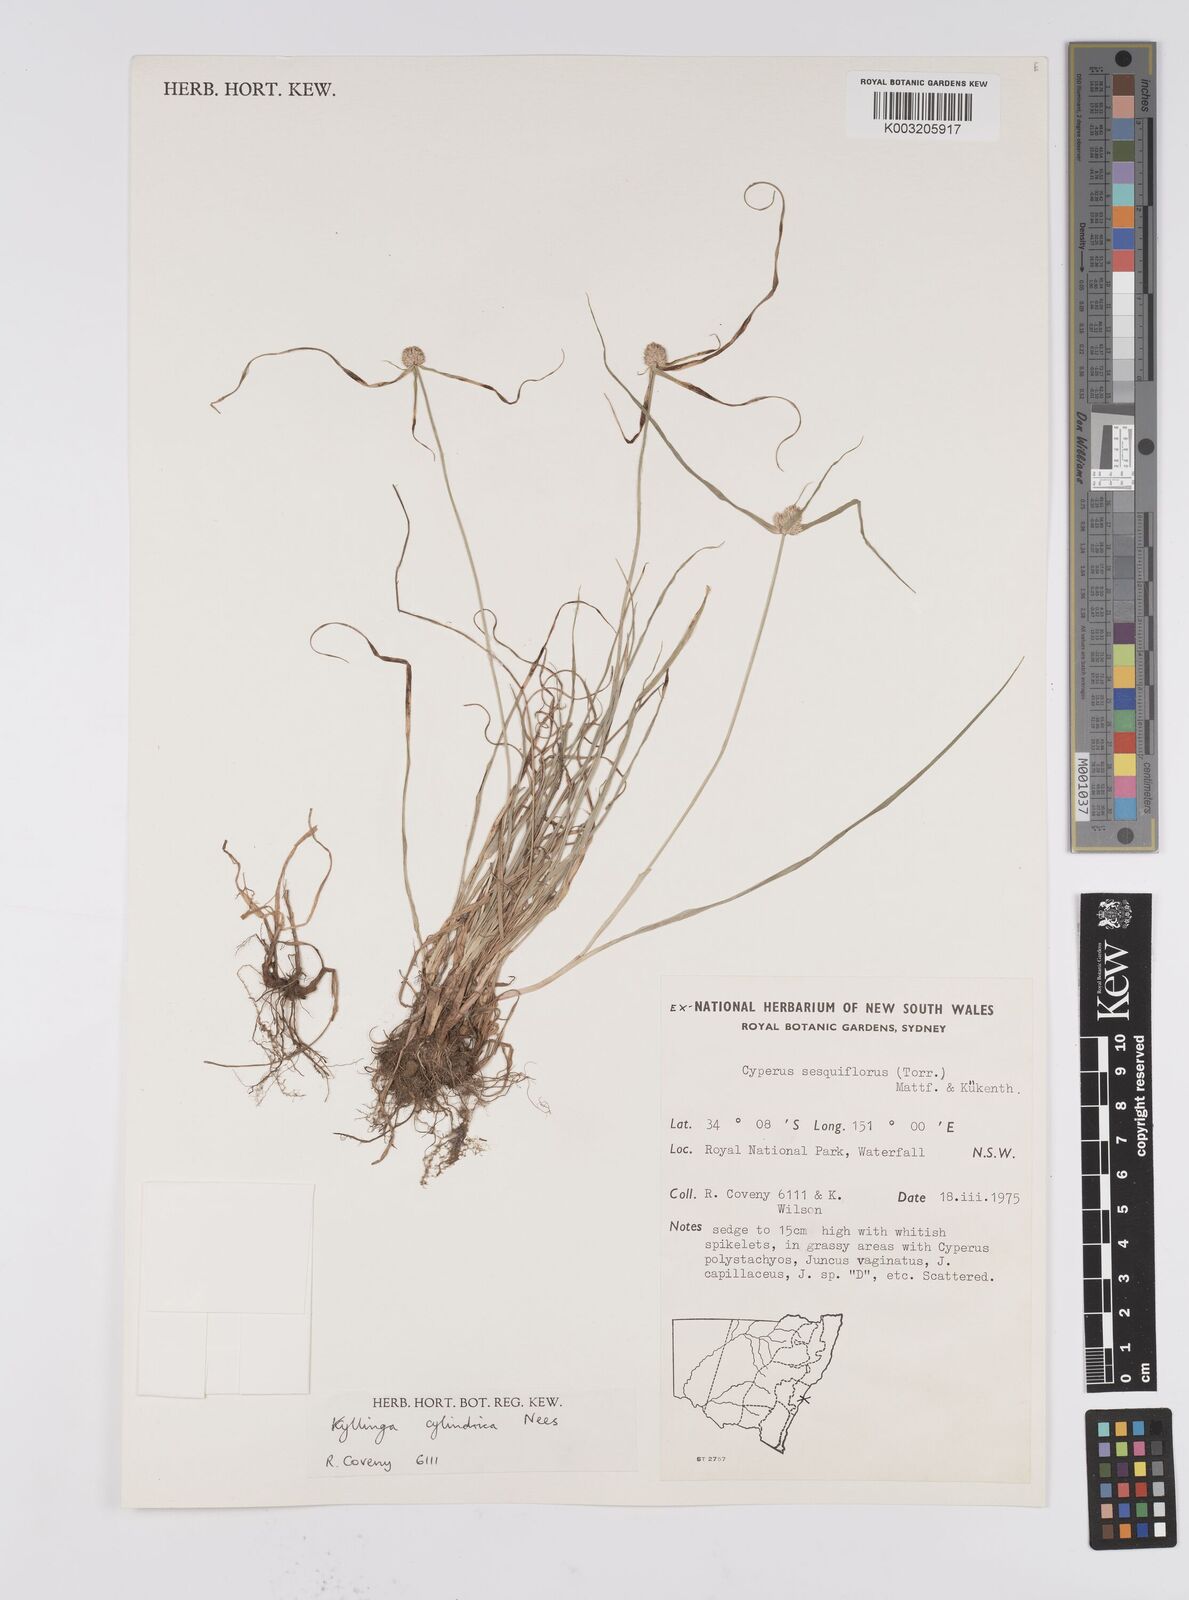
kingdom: Plantae
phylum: Tracheophyta
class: Liliopsida
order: Poales
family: Cyperaceae
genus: Cyperus
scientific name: Cyperus
